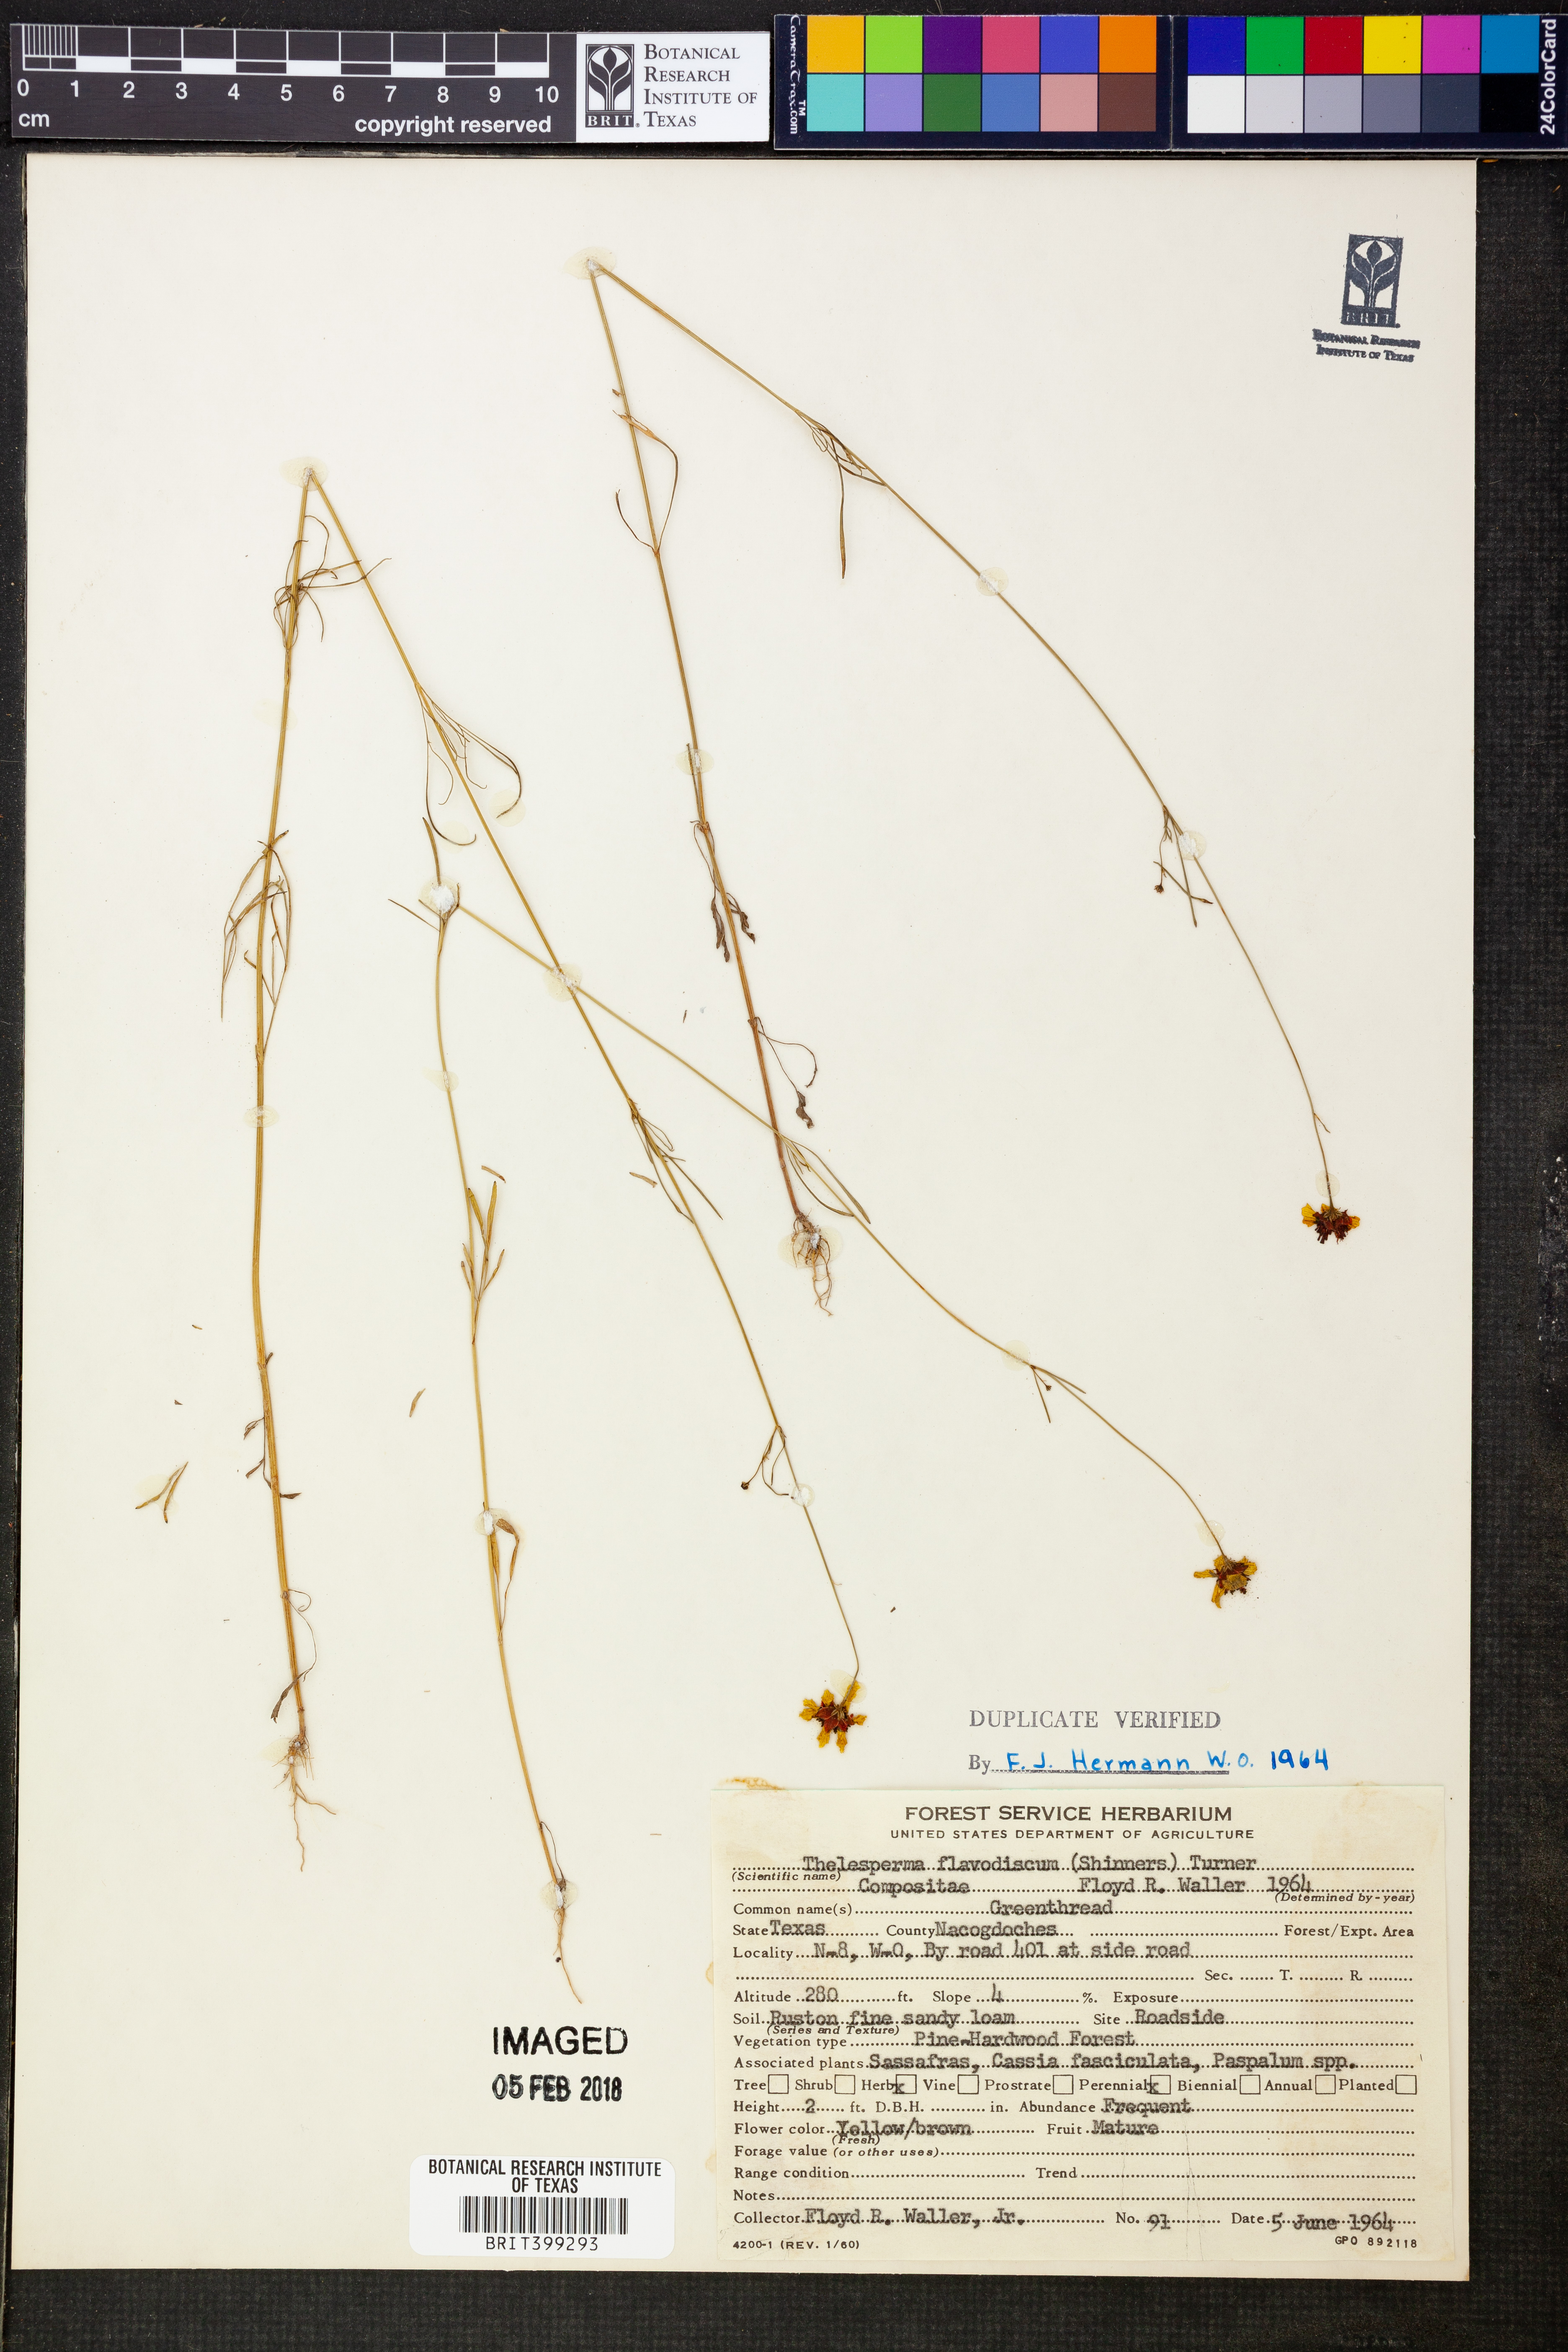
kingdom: Plantae
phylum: Tracheophyta
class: Magnoliopsida
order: Asterales
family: Asteraceae
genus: Thelesperma
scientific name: Thelesperma flavodiscum
